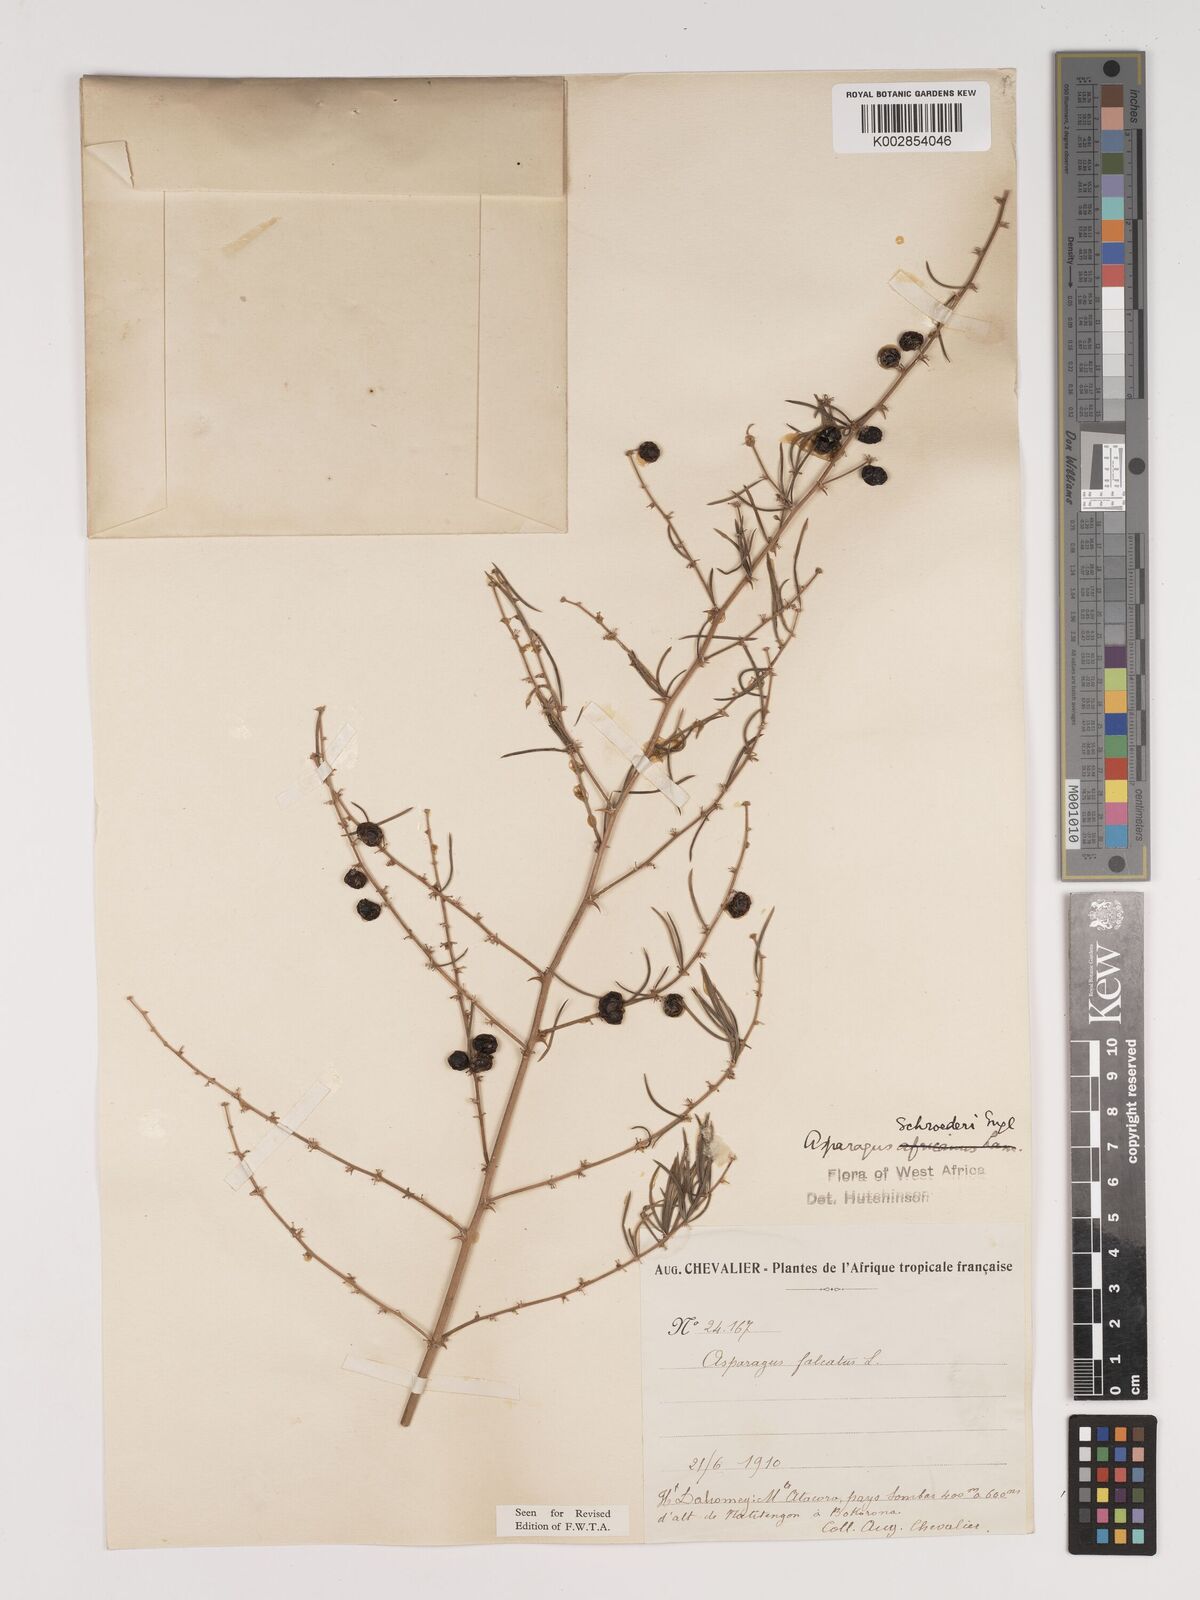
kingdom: Plantae
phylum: Tracheophyta
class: Liliopsida
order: Asparagales
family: Asparagaceae
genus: Asparagus
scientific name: Asparagus schroederi
